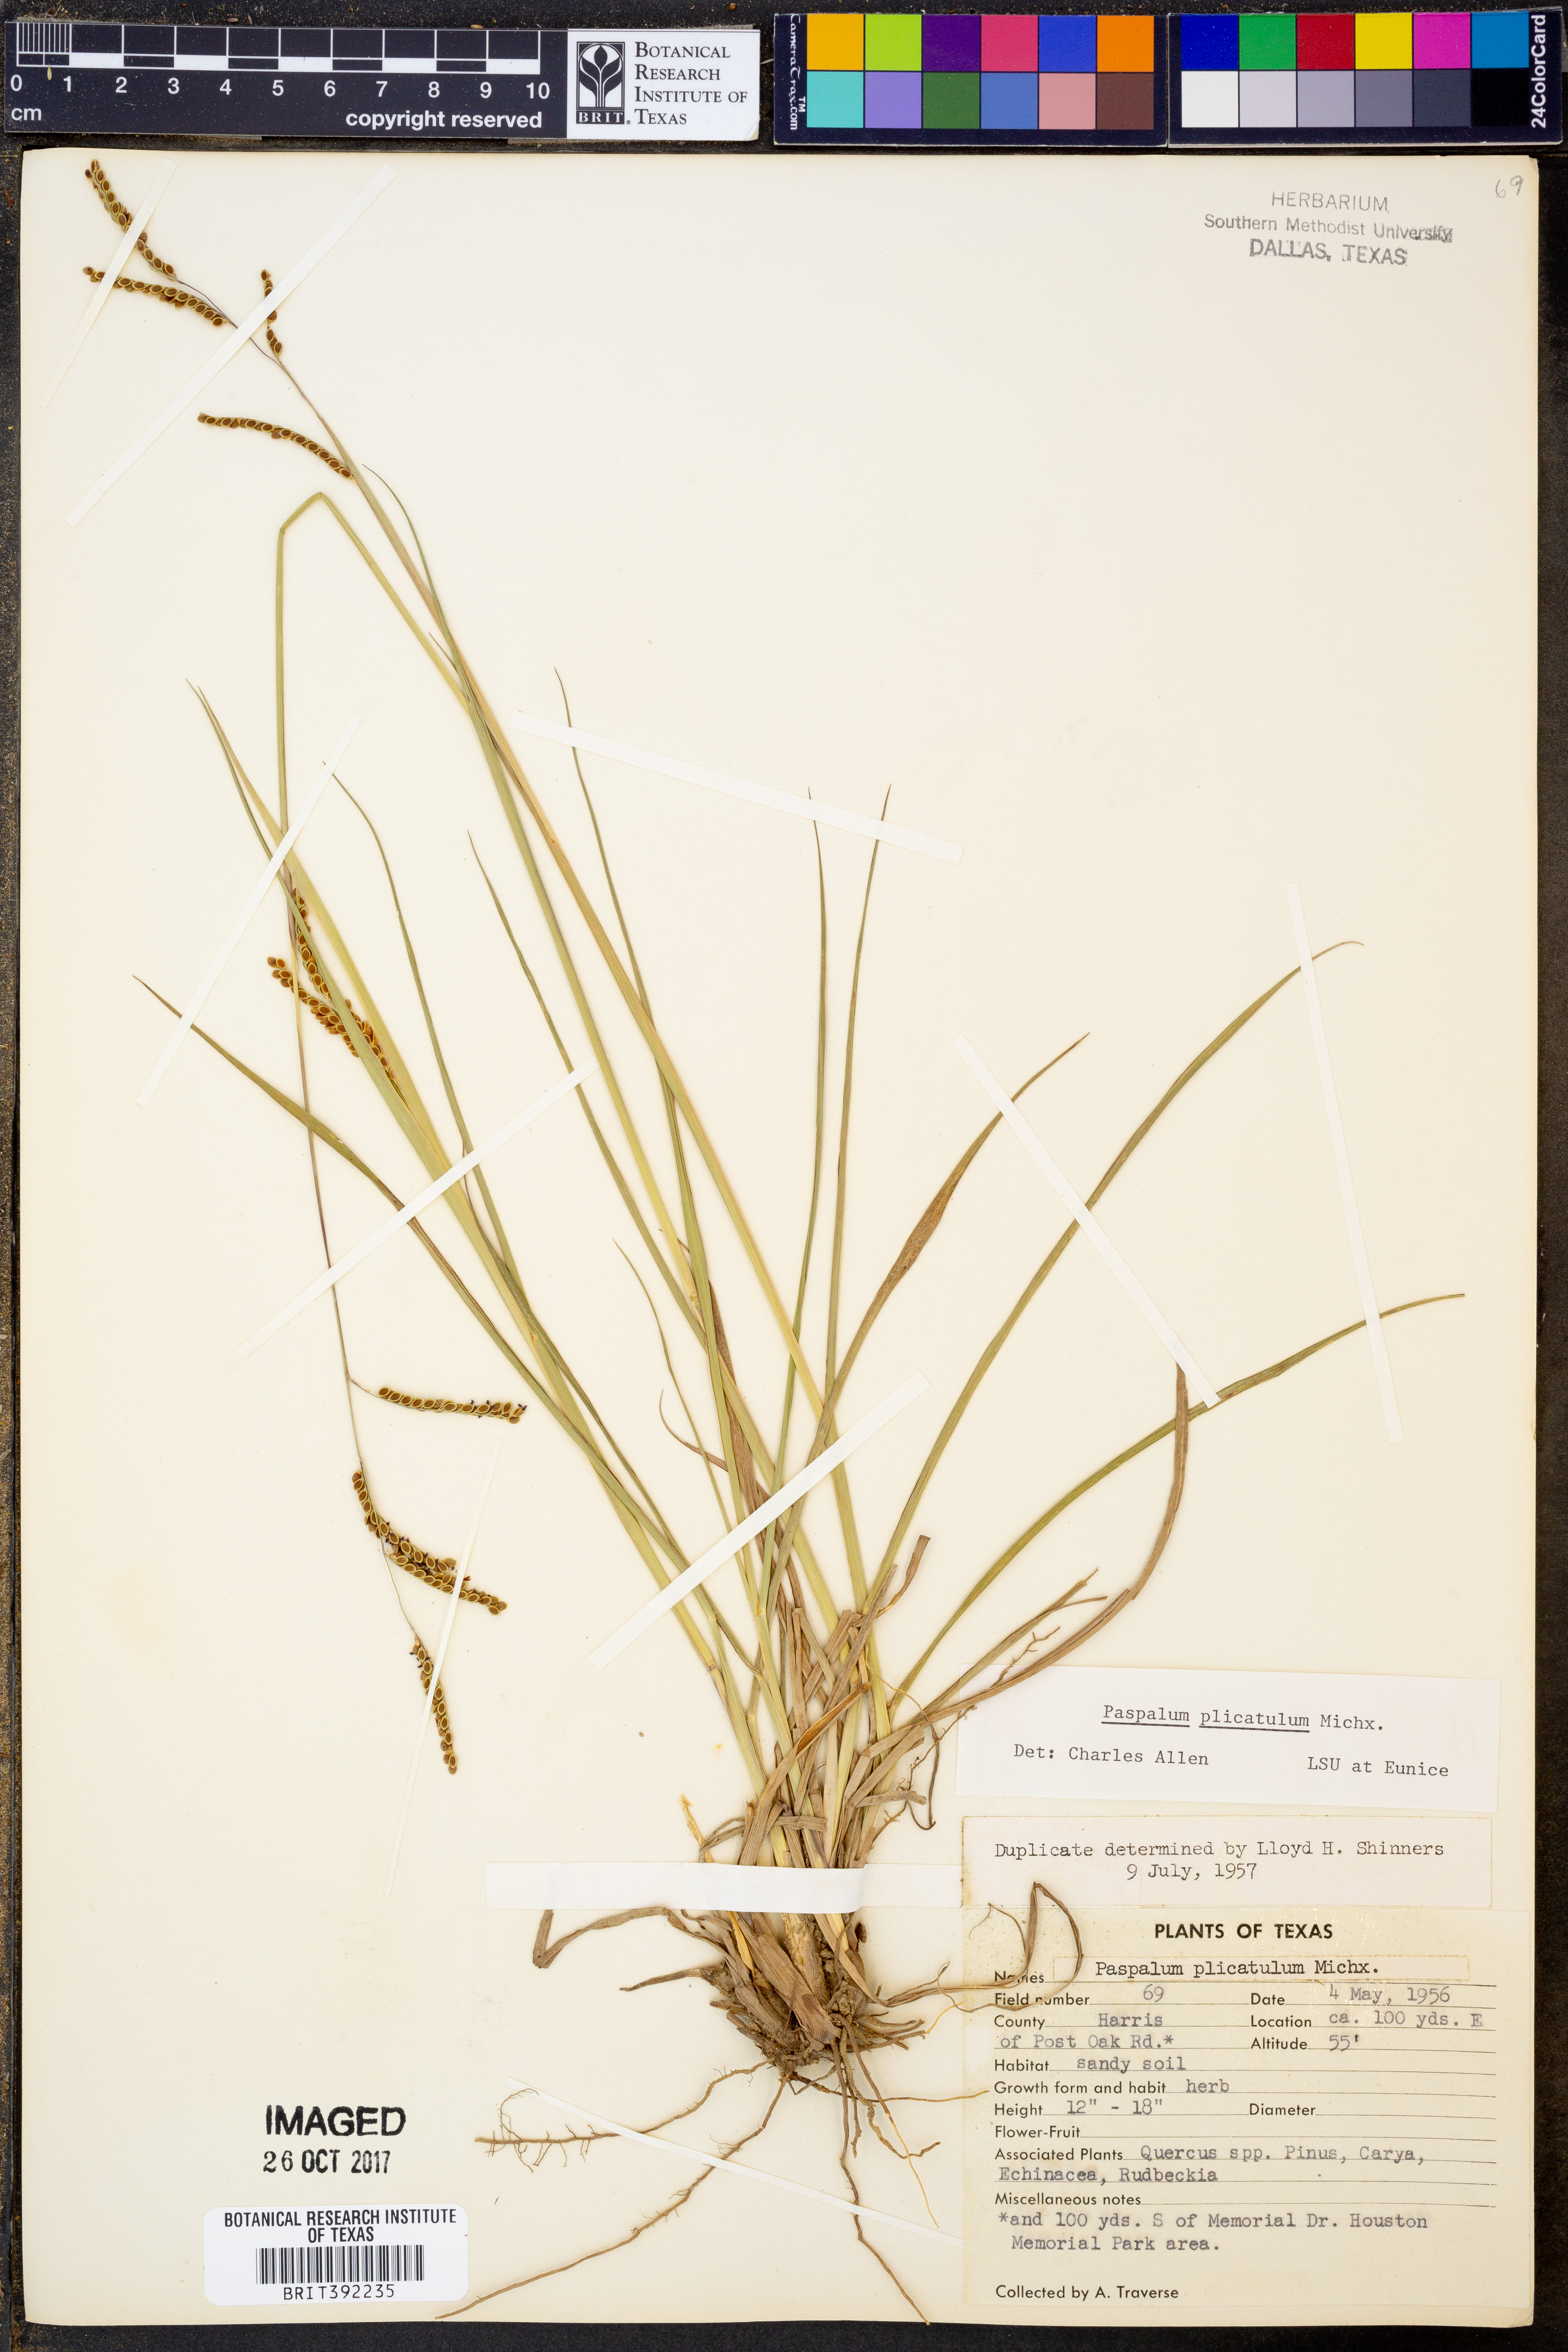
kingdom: Plantae
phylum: Tracheophyta
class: Liliopsida
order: Poales
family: Poaceae
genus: Paspalum
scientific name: Paspalum plicatulum
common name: Top paspalum
